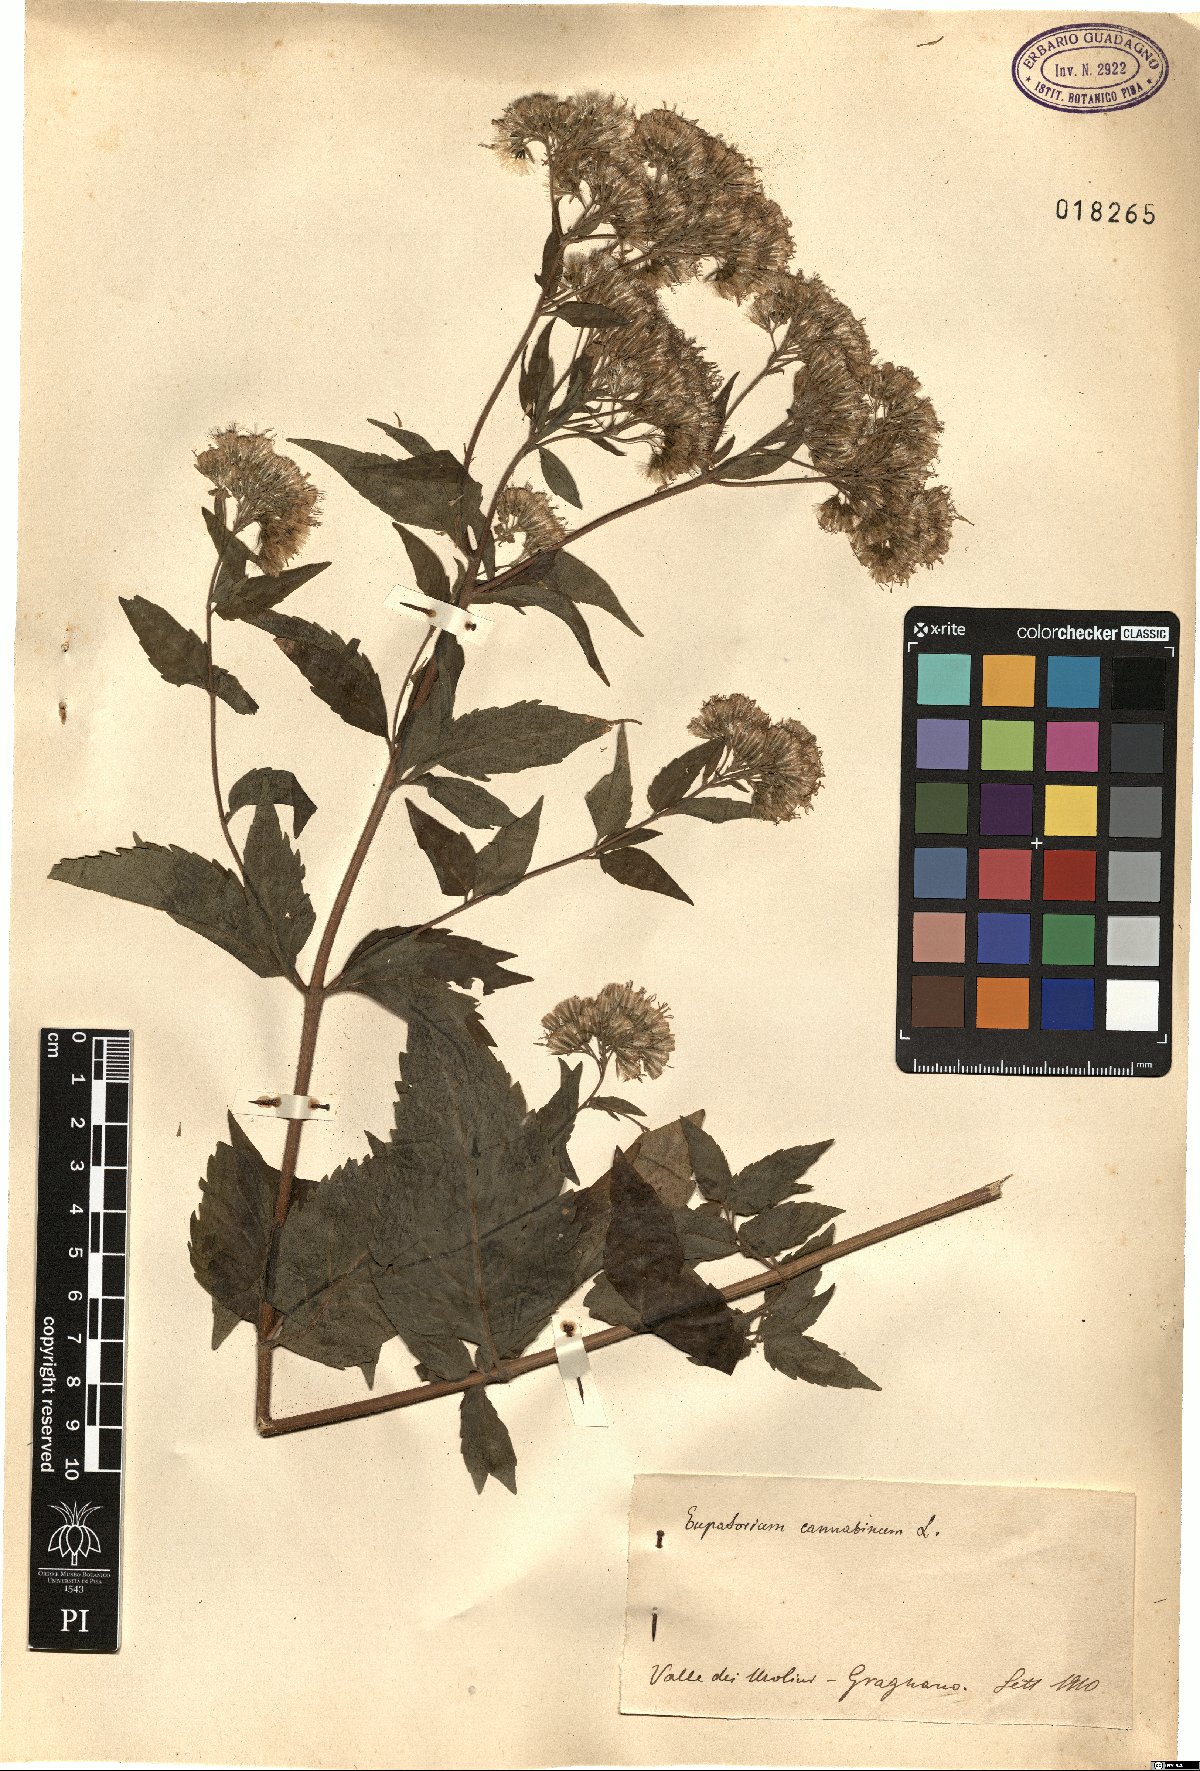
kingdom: Plantae
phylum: Tracheophyta
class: Magnoliopsida
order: Asterales
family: Asteraceae
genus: Eupatorium
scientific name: Eupatorium cannabinum
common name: Hemp-agrimony
